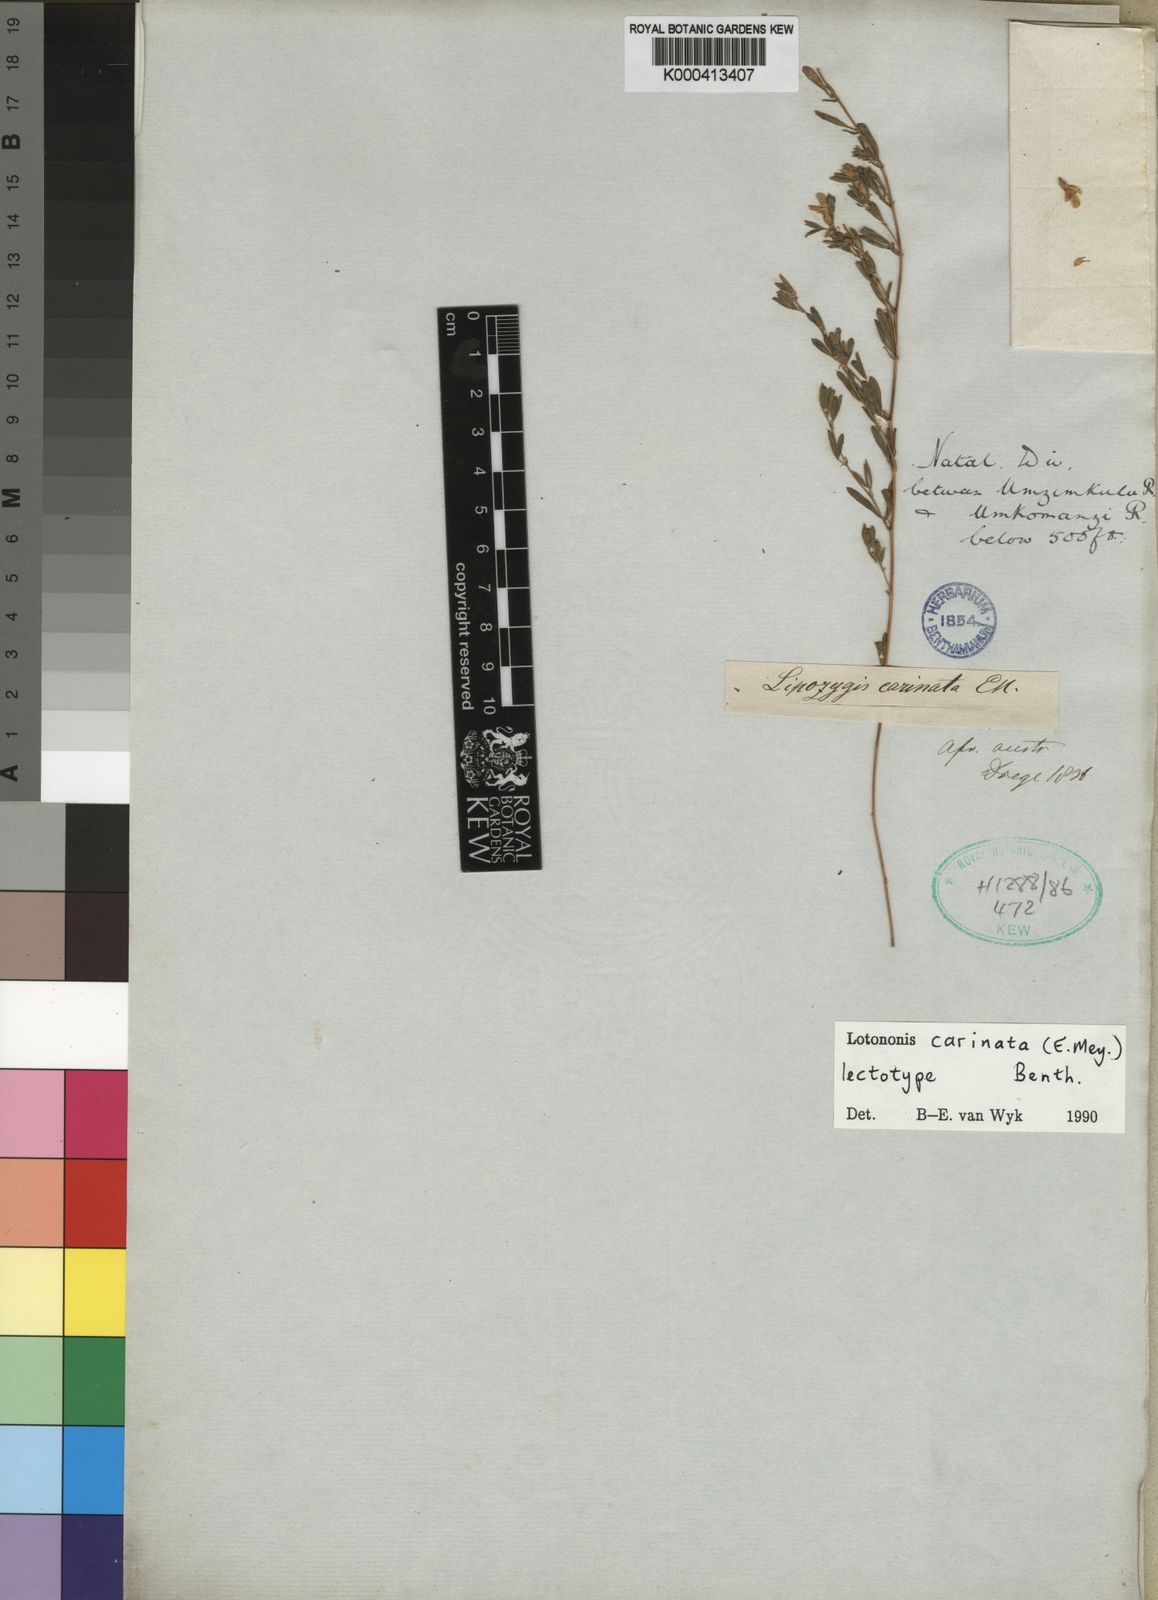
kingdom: Plantae
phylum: Tracheophyta
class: Magnoliopsida
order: Fabales
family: Fabaceae
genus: Leobordea
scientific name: Leobordea carinata
